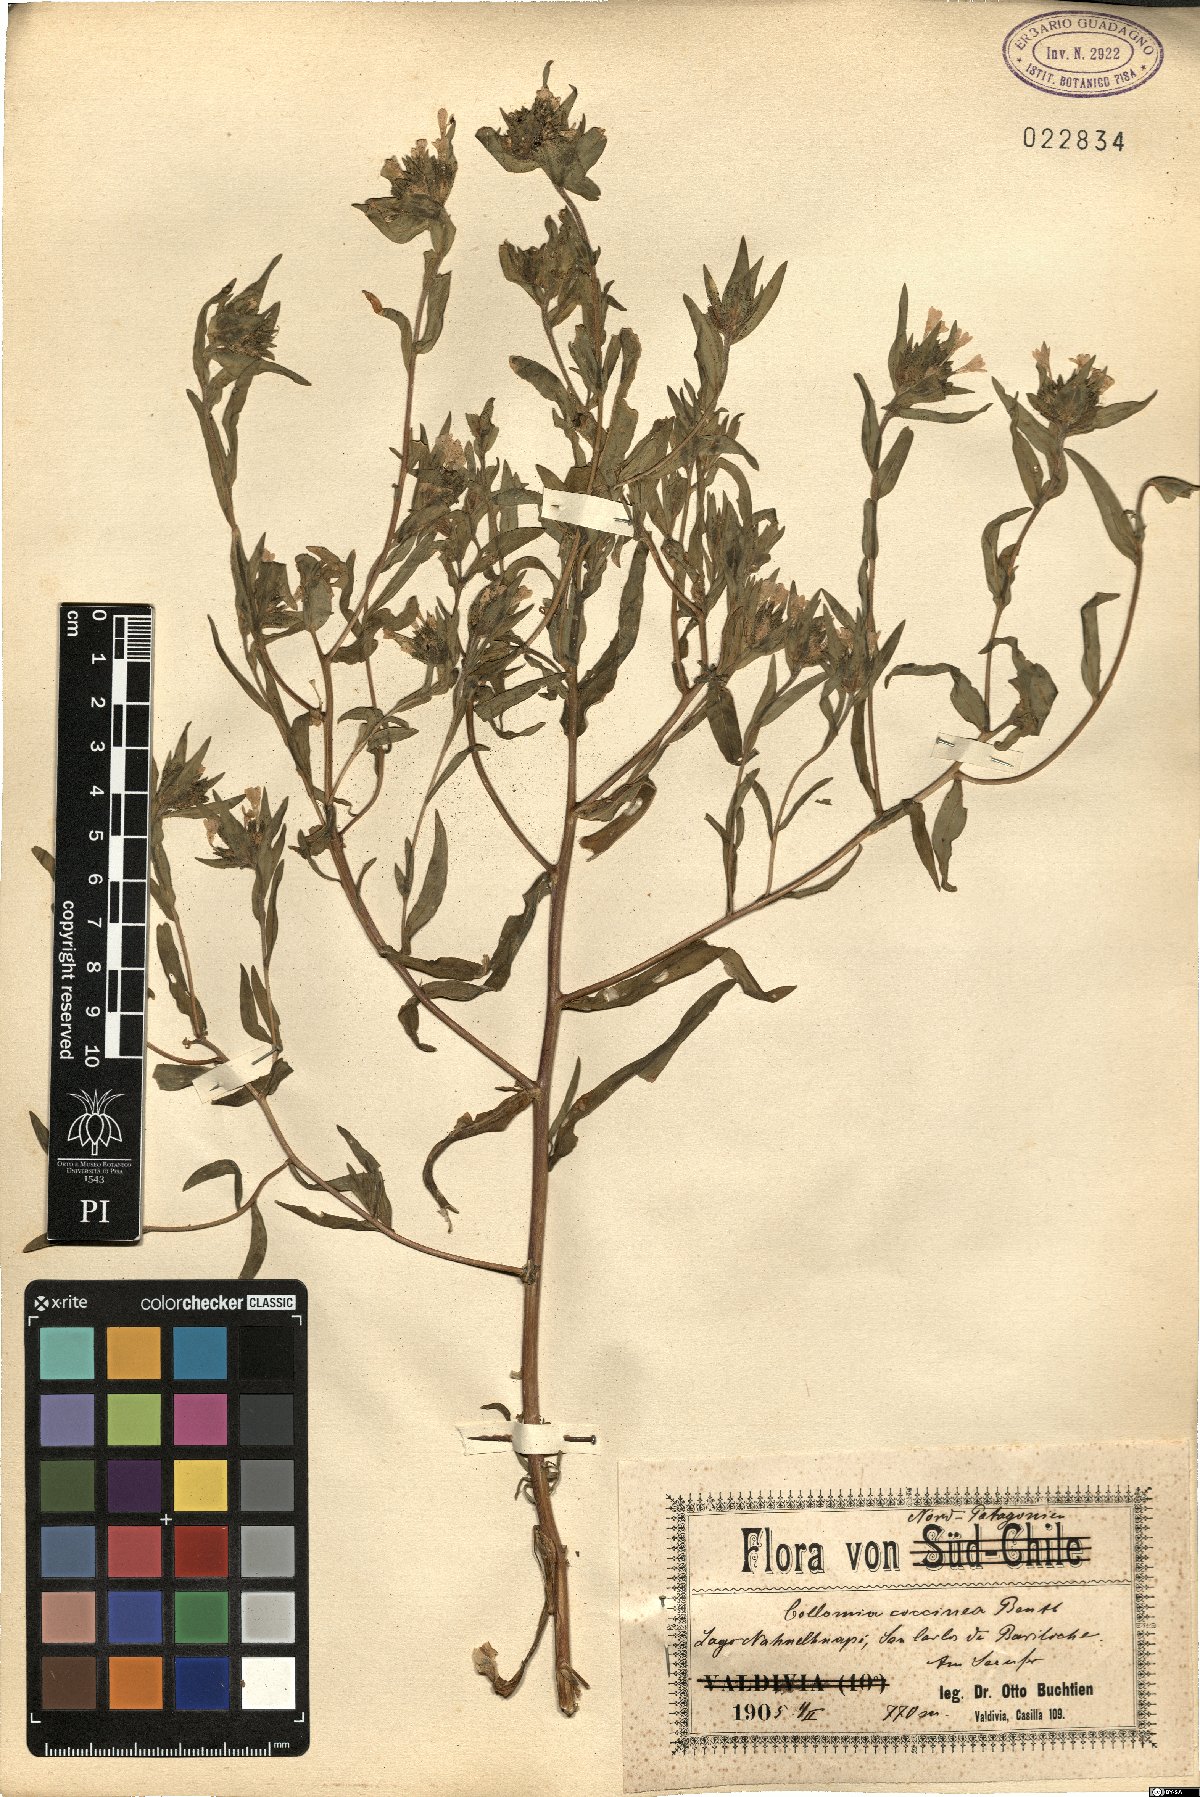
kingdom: Plantae
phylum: Tracheophyta
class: Magnoliopsida
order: Ericales
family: Polemoniaceae
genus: Collomia
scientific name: Collomia coccinea
